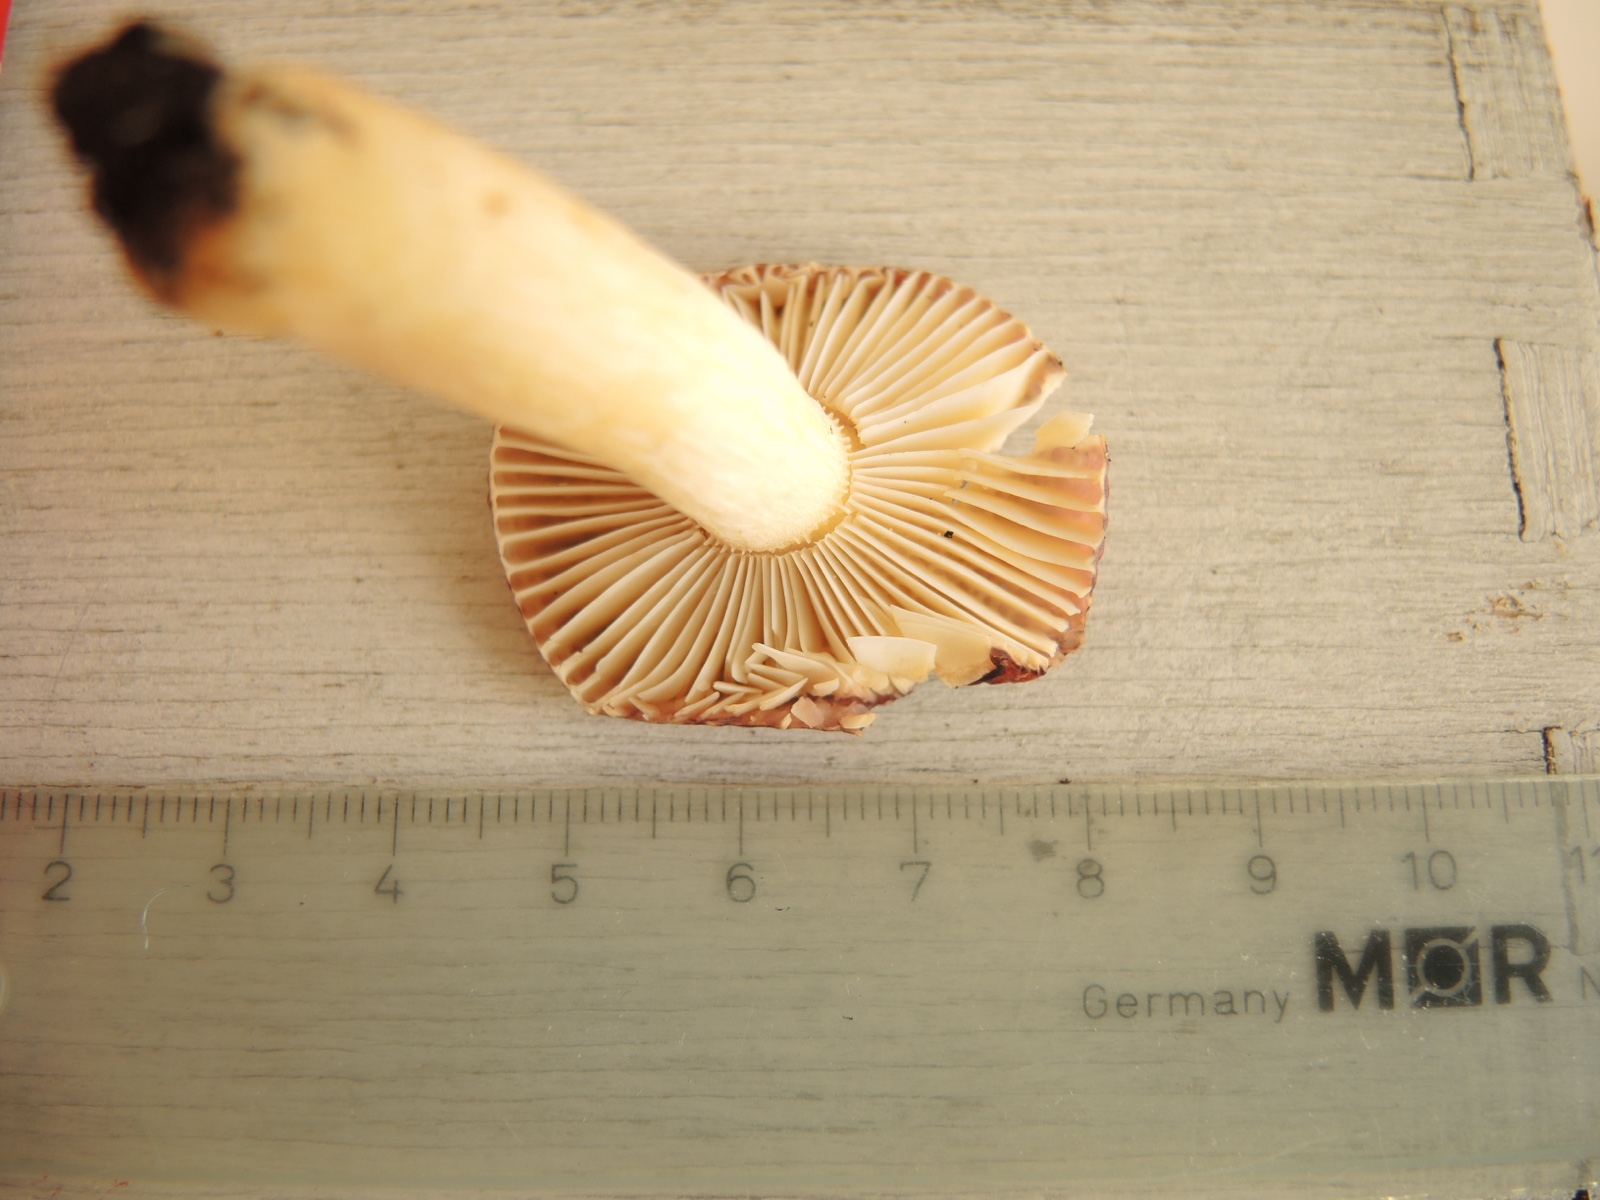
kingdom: Fungi
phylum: Basidiomycota
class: Agaricomycetes
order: Russulales
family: Russulaceae
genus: Russula
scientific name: Russula alnetorum
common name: elle-skørhat
